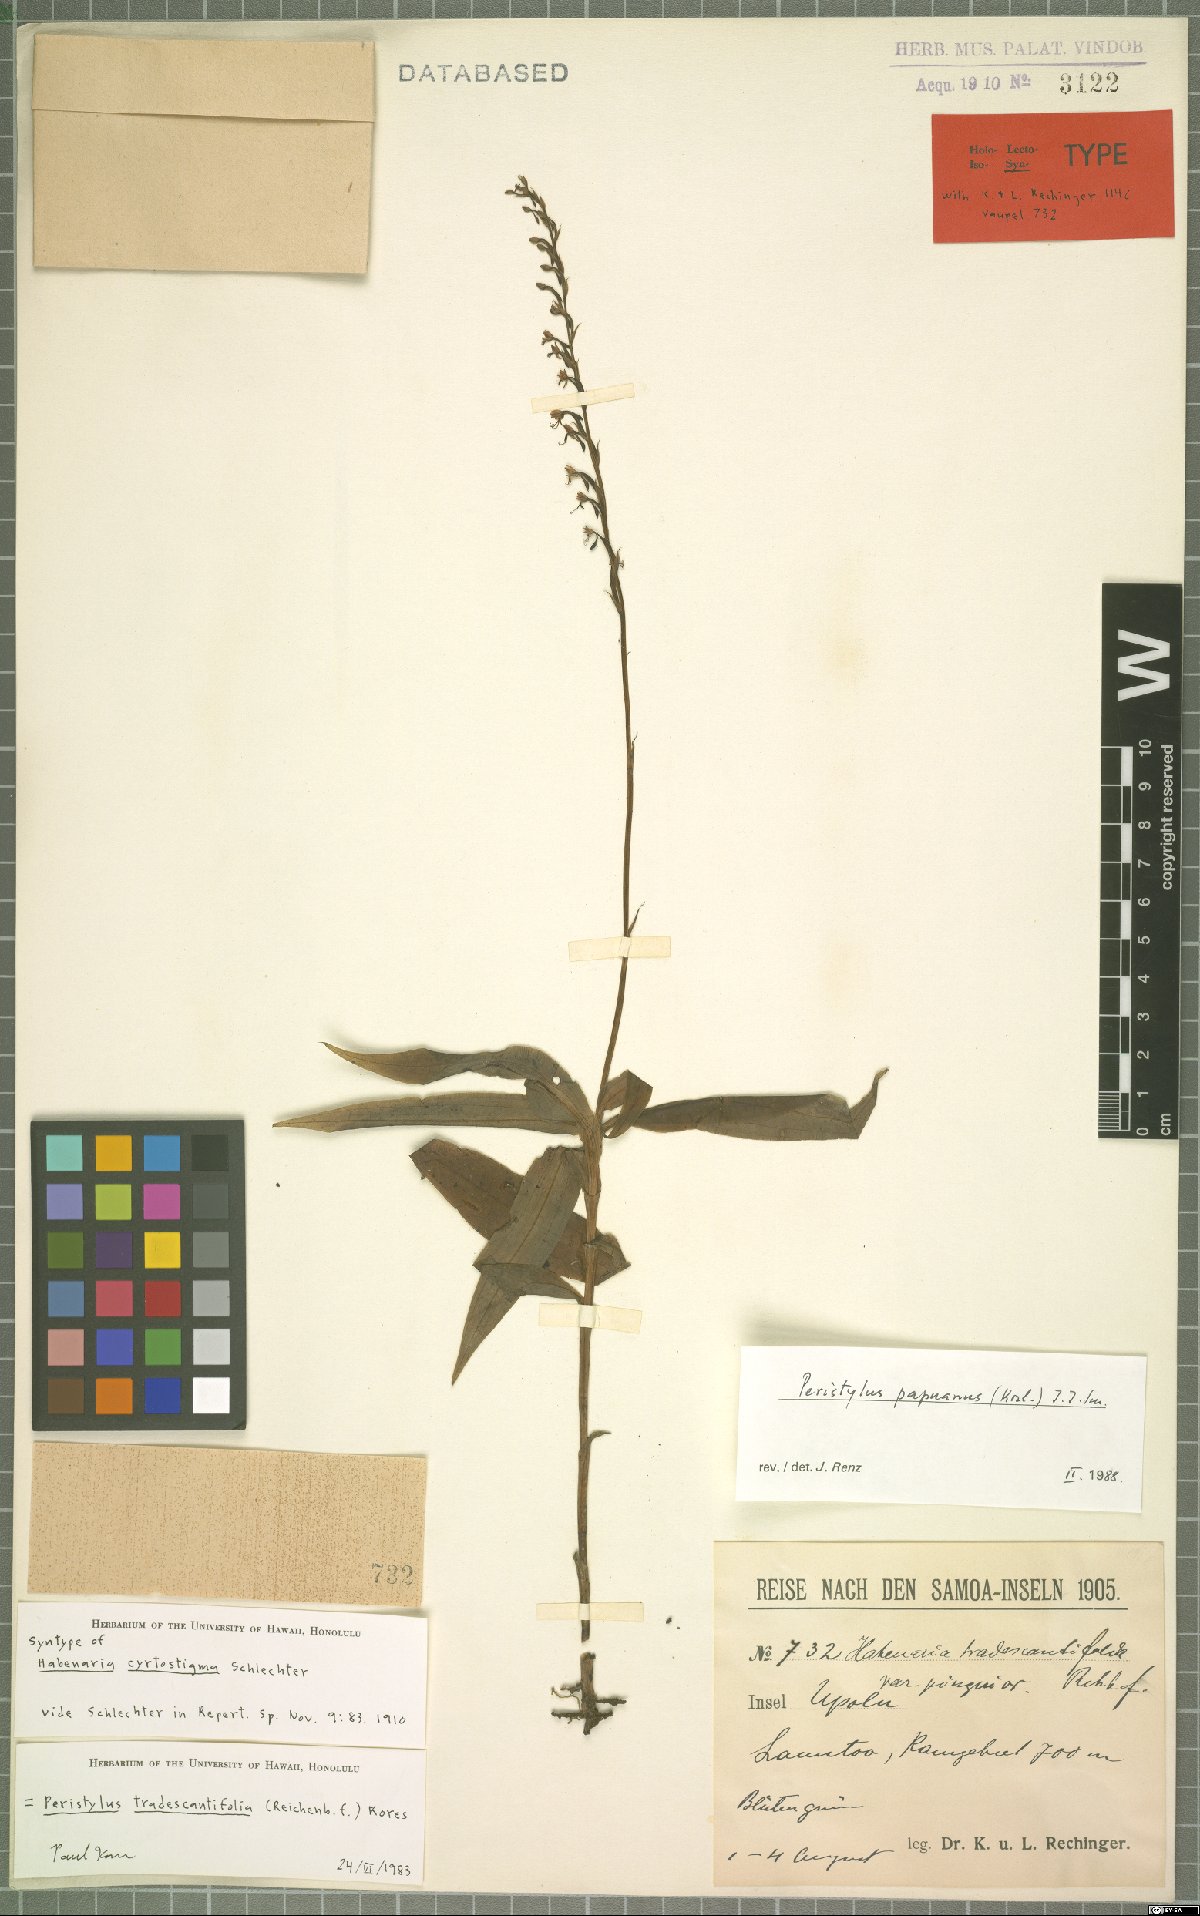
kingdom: Plantae
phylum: Tracheophyta
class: Liliopsida
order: Asparagales
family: Orchidaceae
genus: Peristylus
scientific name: Peristylus tradescantiifolius
